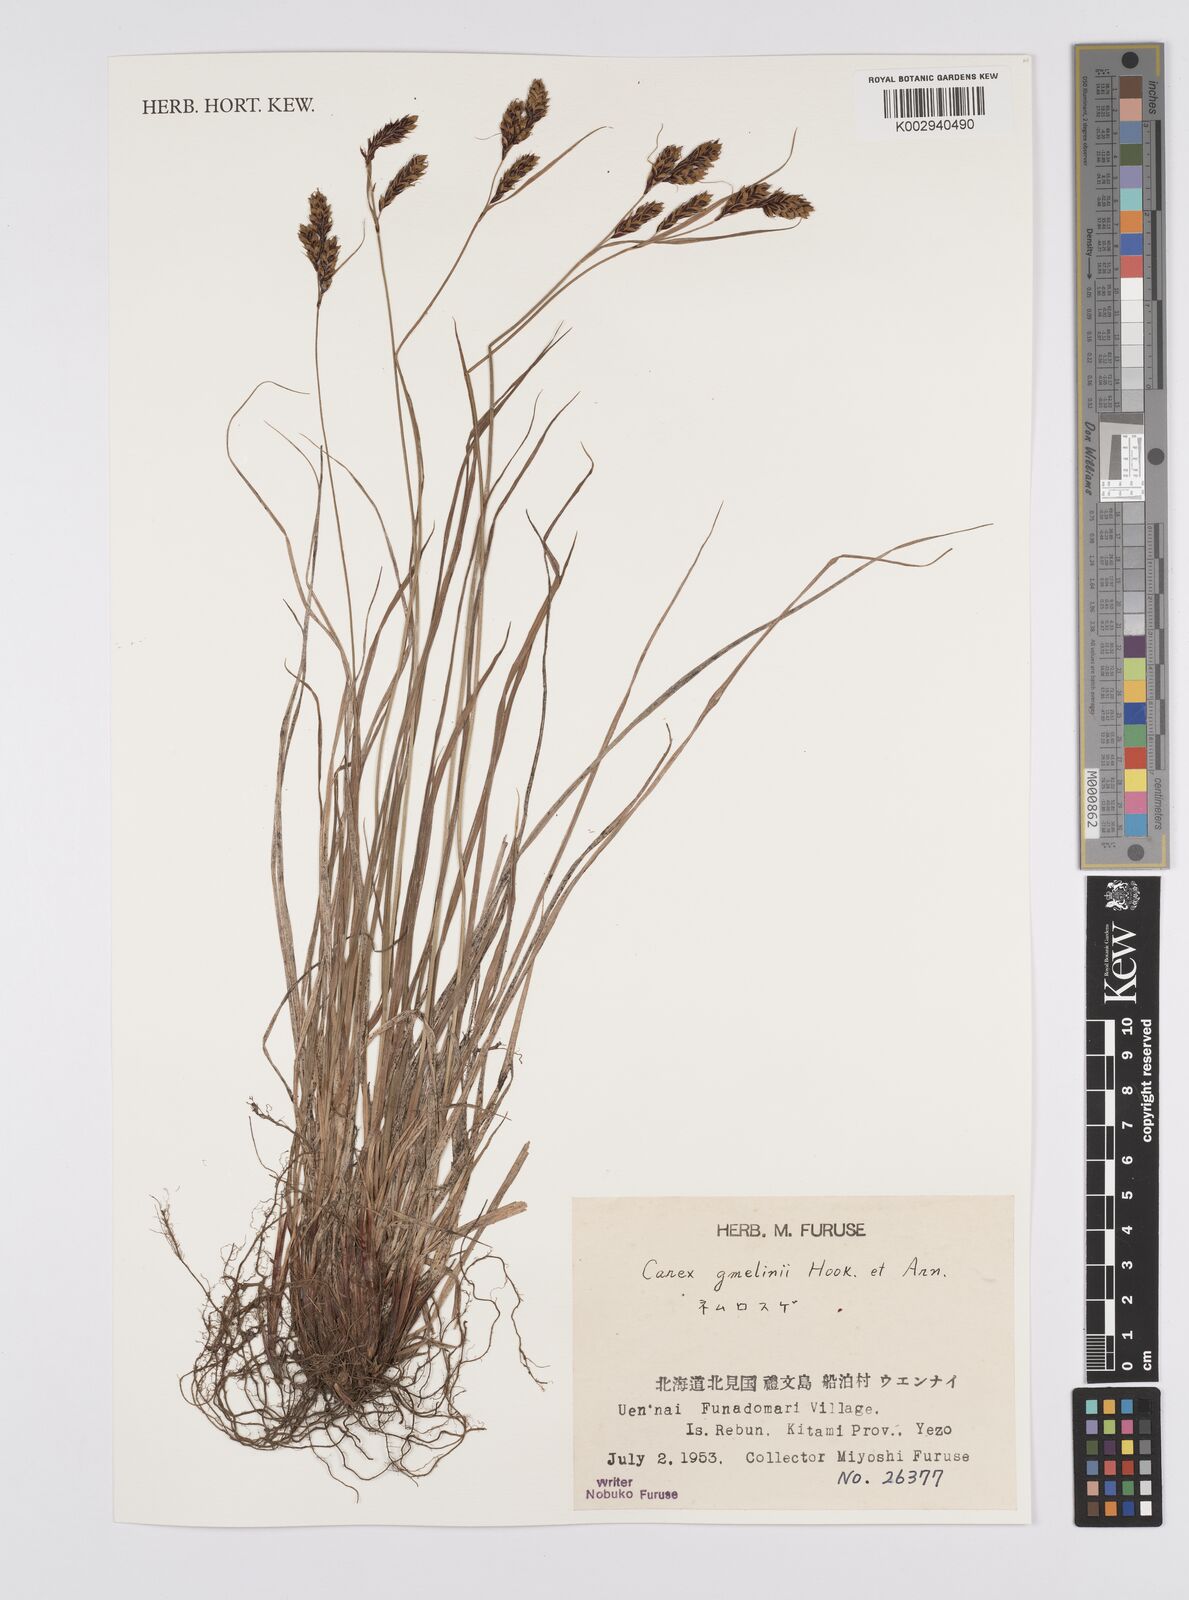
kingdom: Plantae
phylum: Tracheophyta
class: Liliopsida
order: Poales
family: Cyperaceae
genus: Carex
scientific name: Carex gmelinii
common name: Gmelin's sedge
